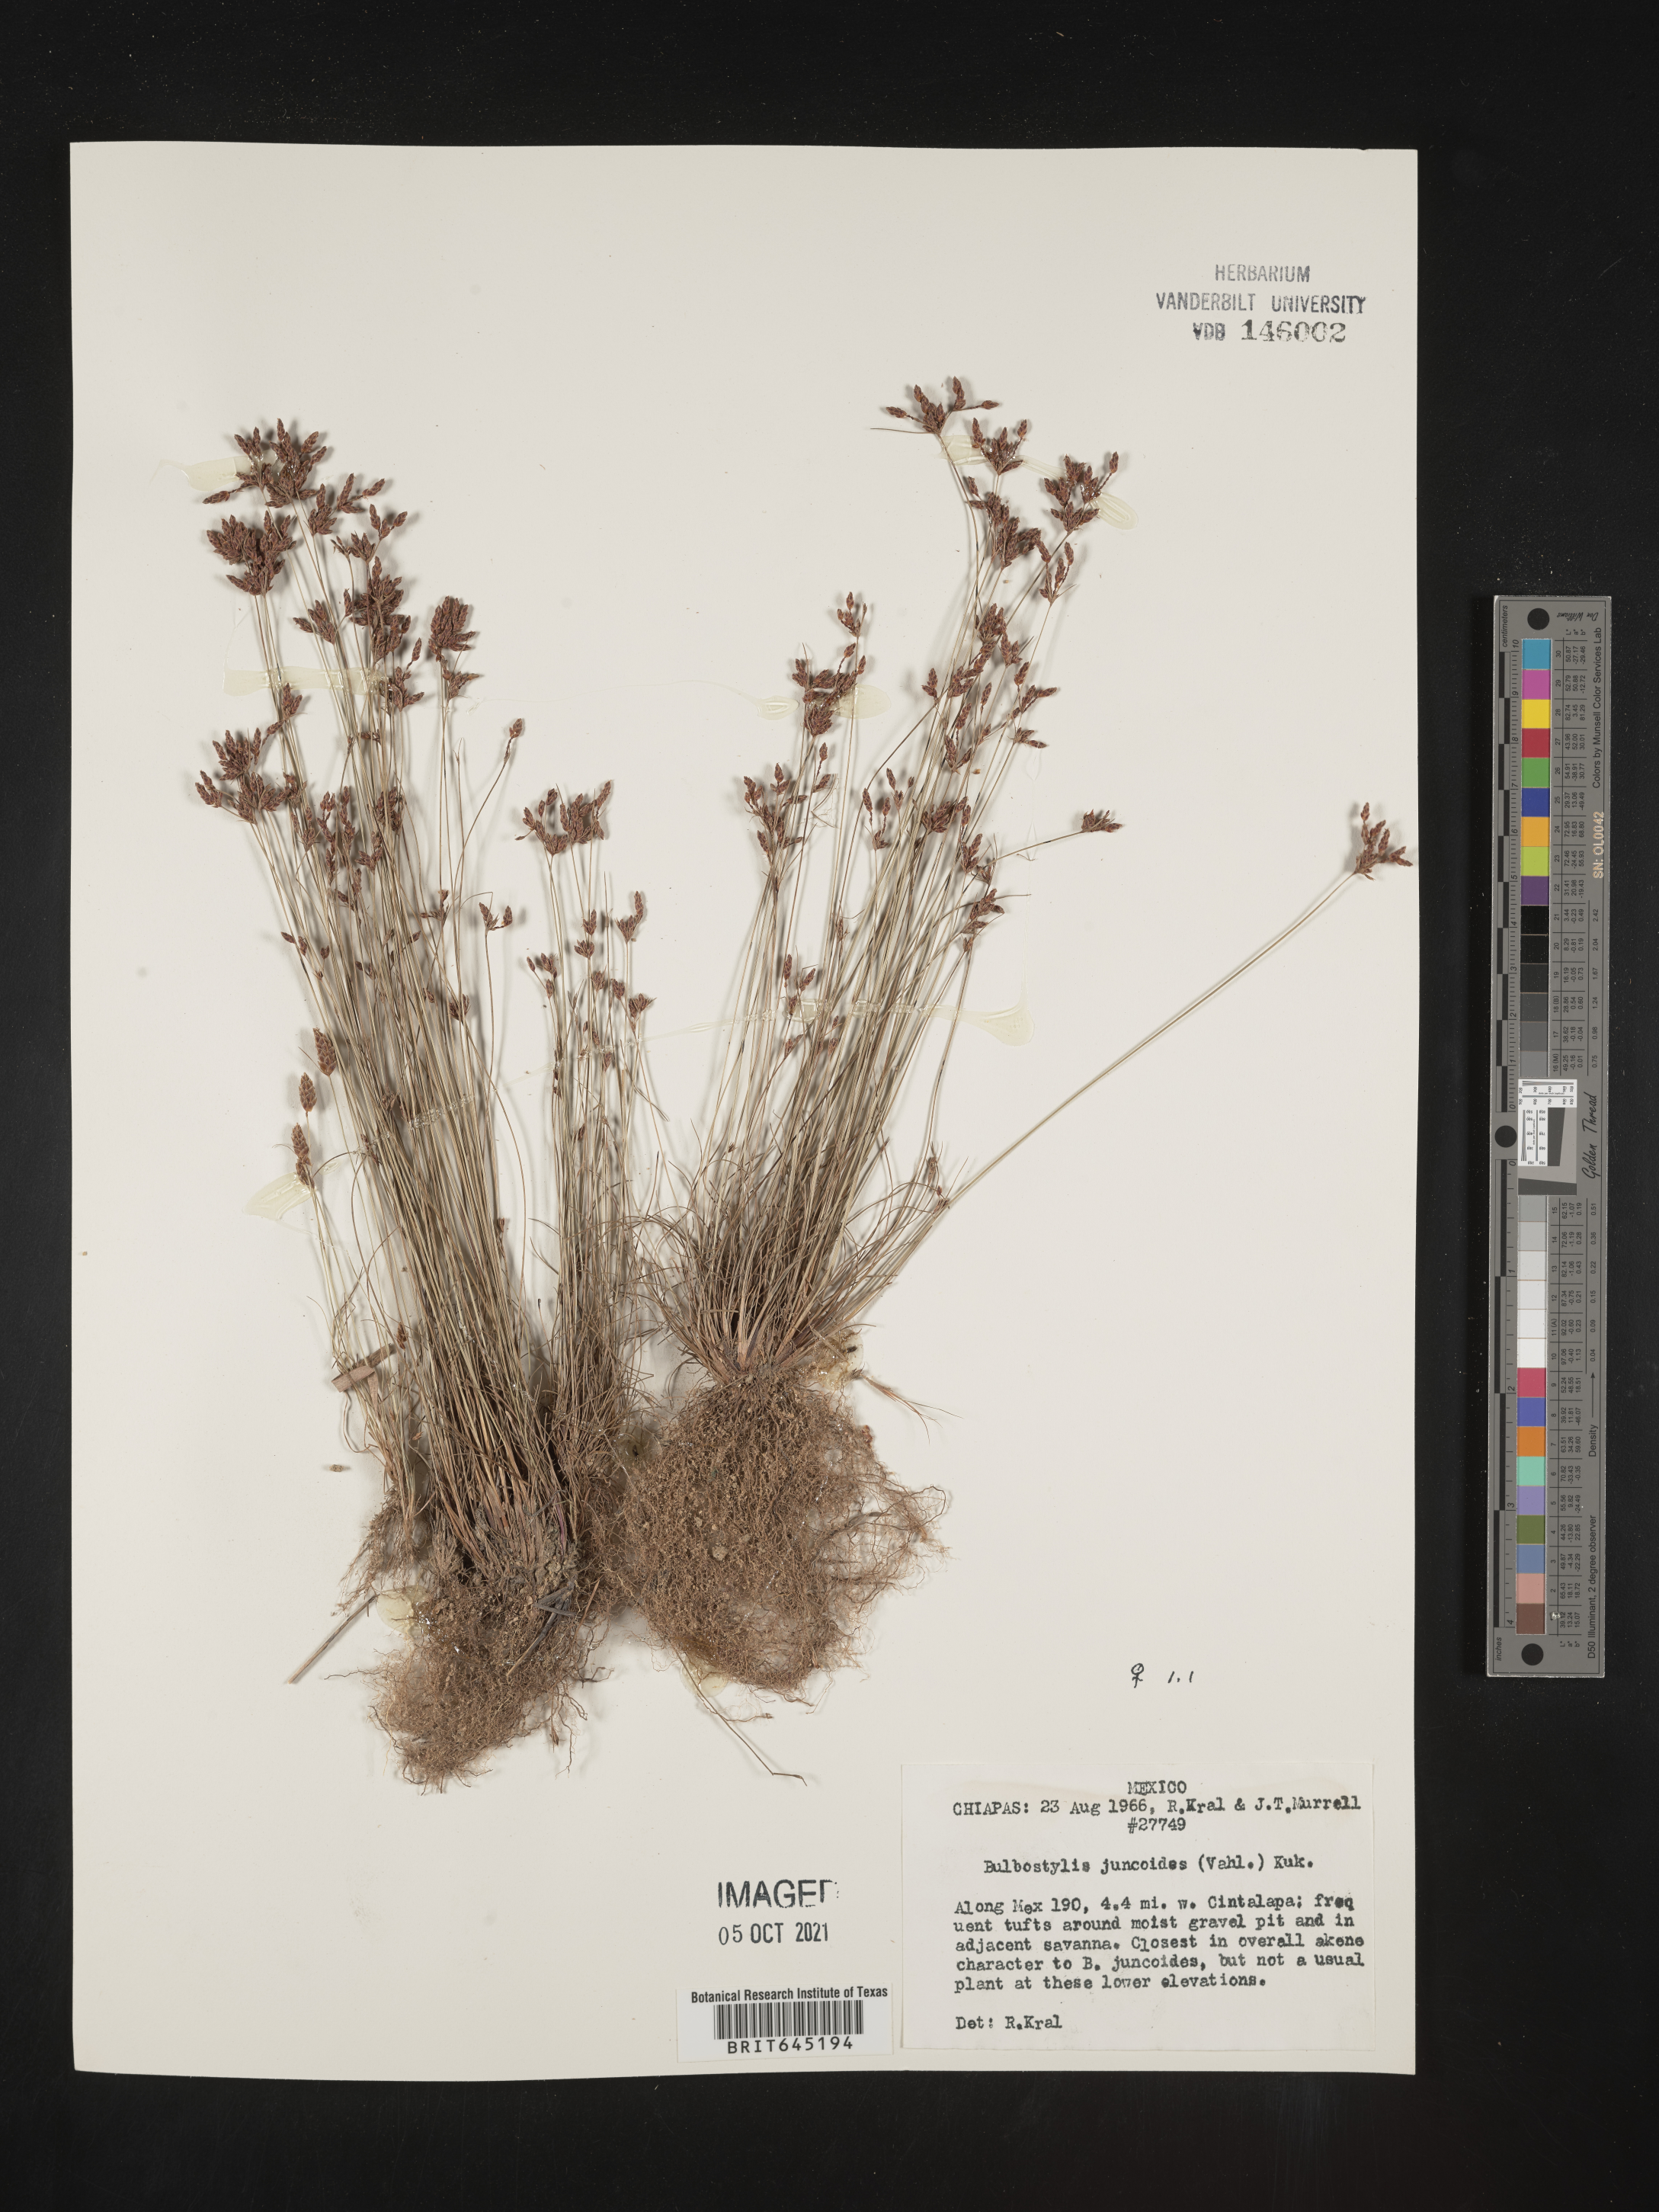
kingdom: Plantae
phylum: Tracheophyta
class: Liliopsida
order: Poales
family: Cyperaceae
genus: Bulbostylis
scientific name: Bulbostylis juncoides
